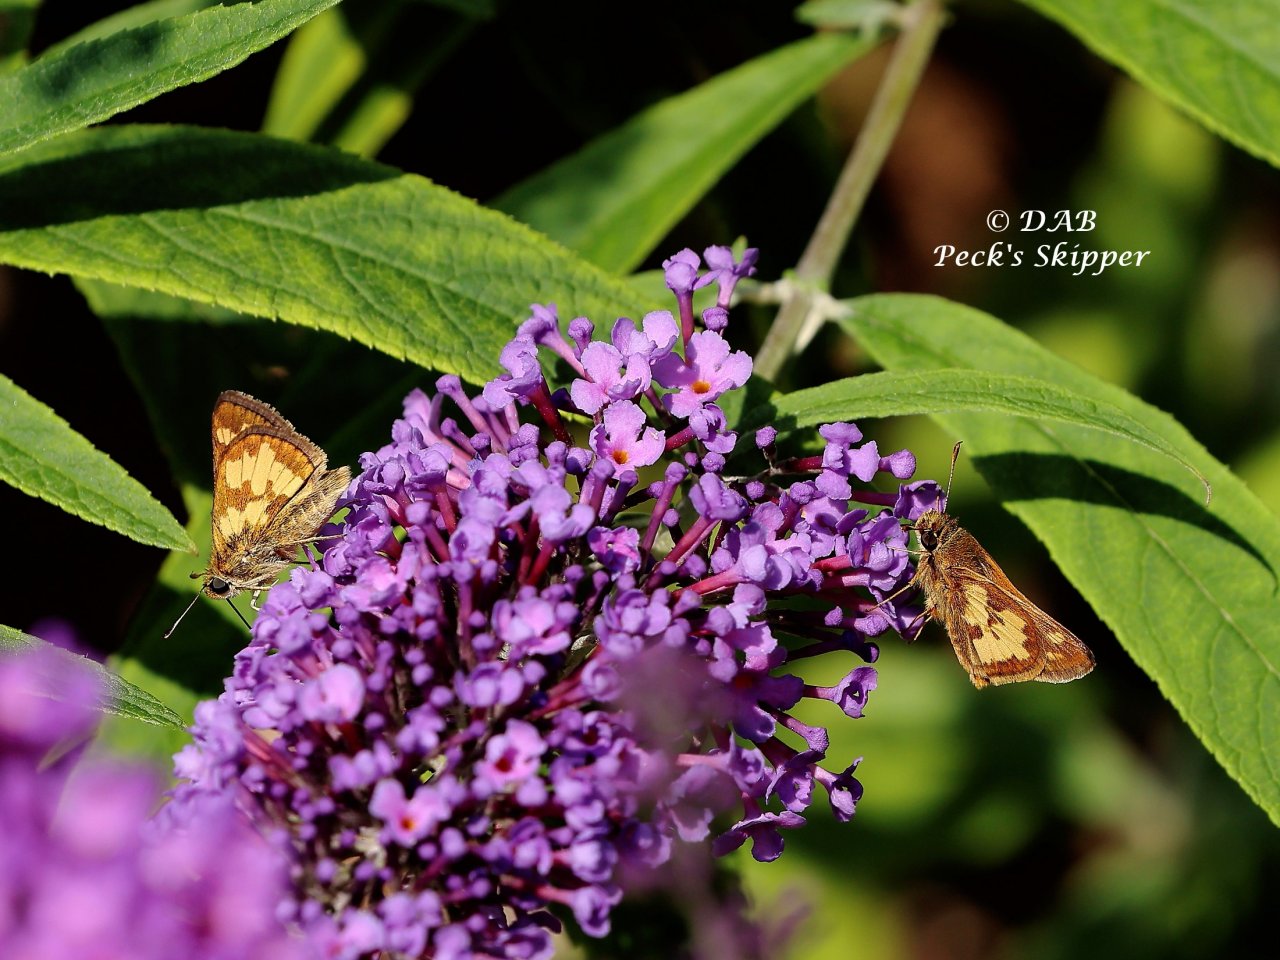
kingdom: Animalia
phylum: Arthropoda
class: Insecta
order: Lepidoptera
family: Hesperiidae
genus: Polites
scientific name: Polites coras
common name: Peck's Skipper
